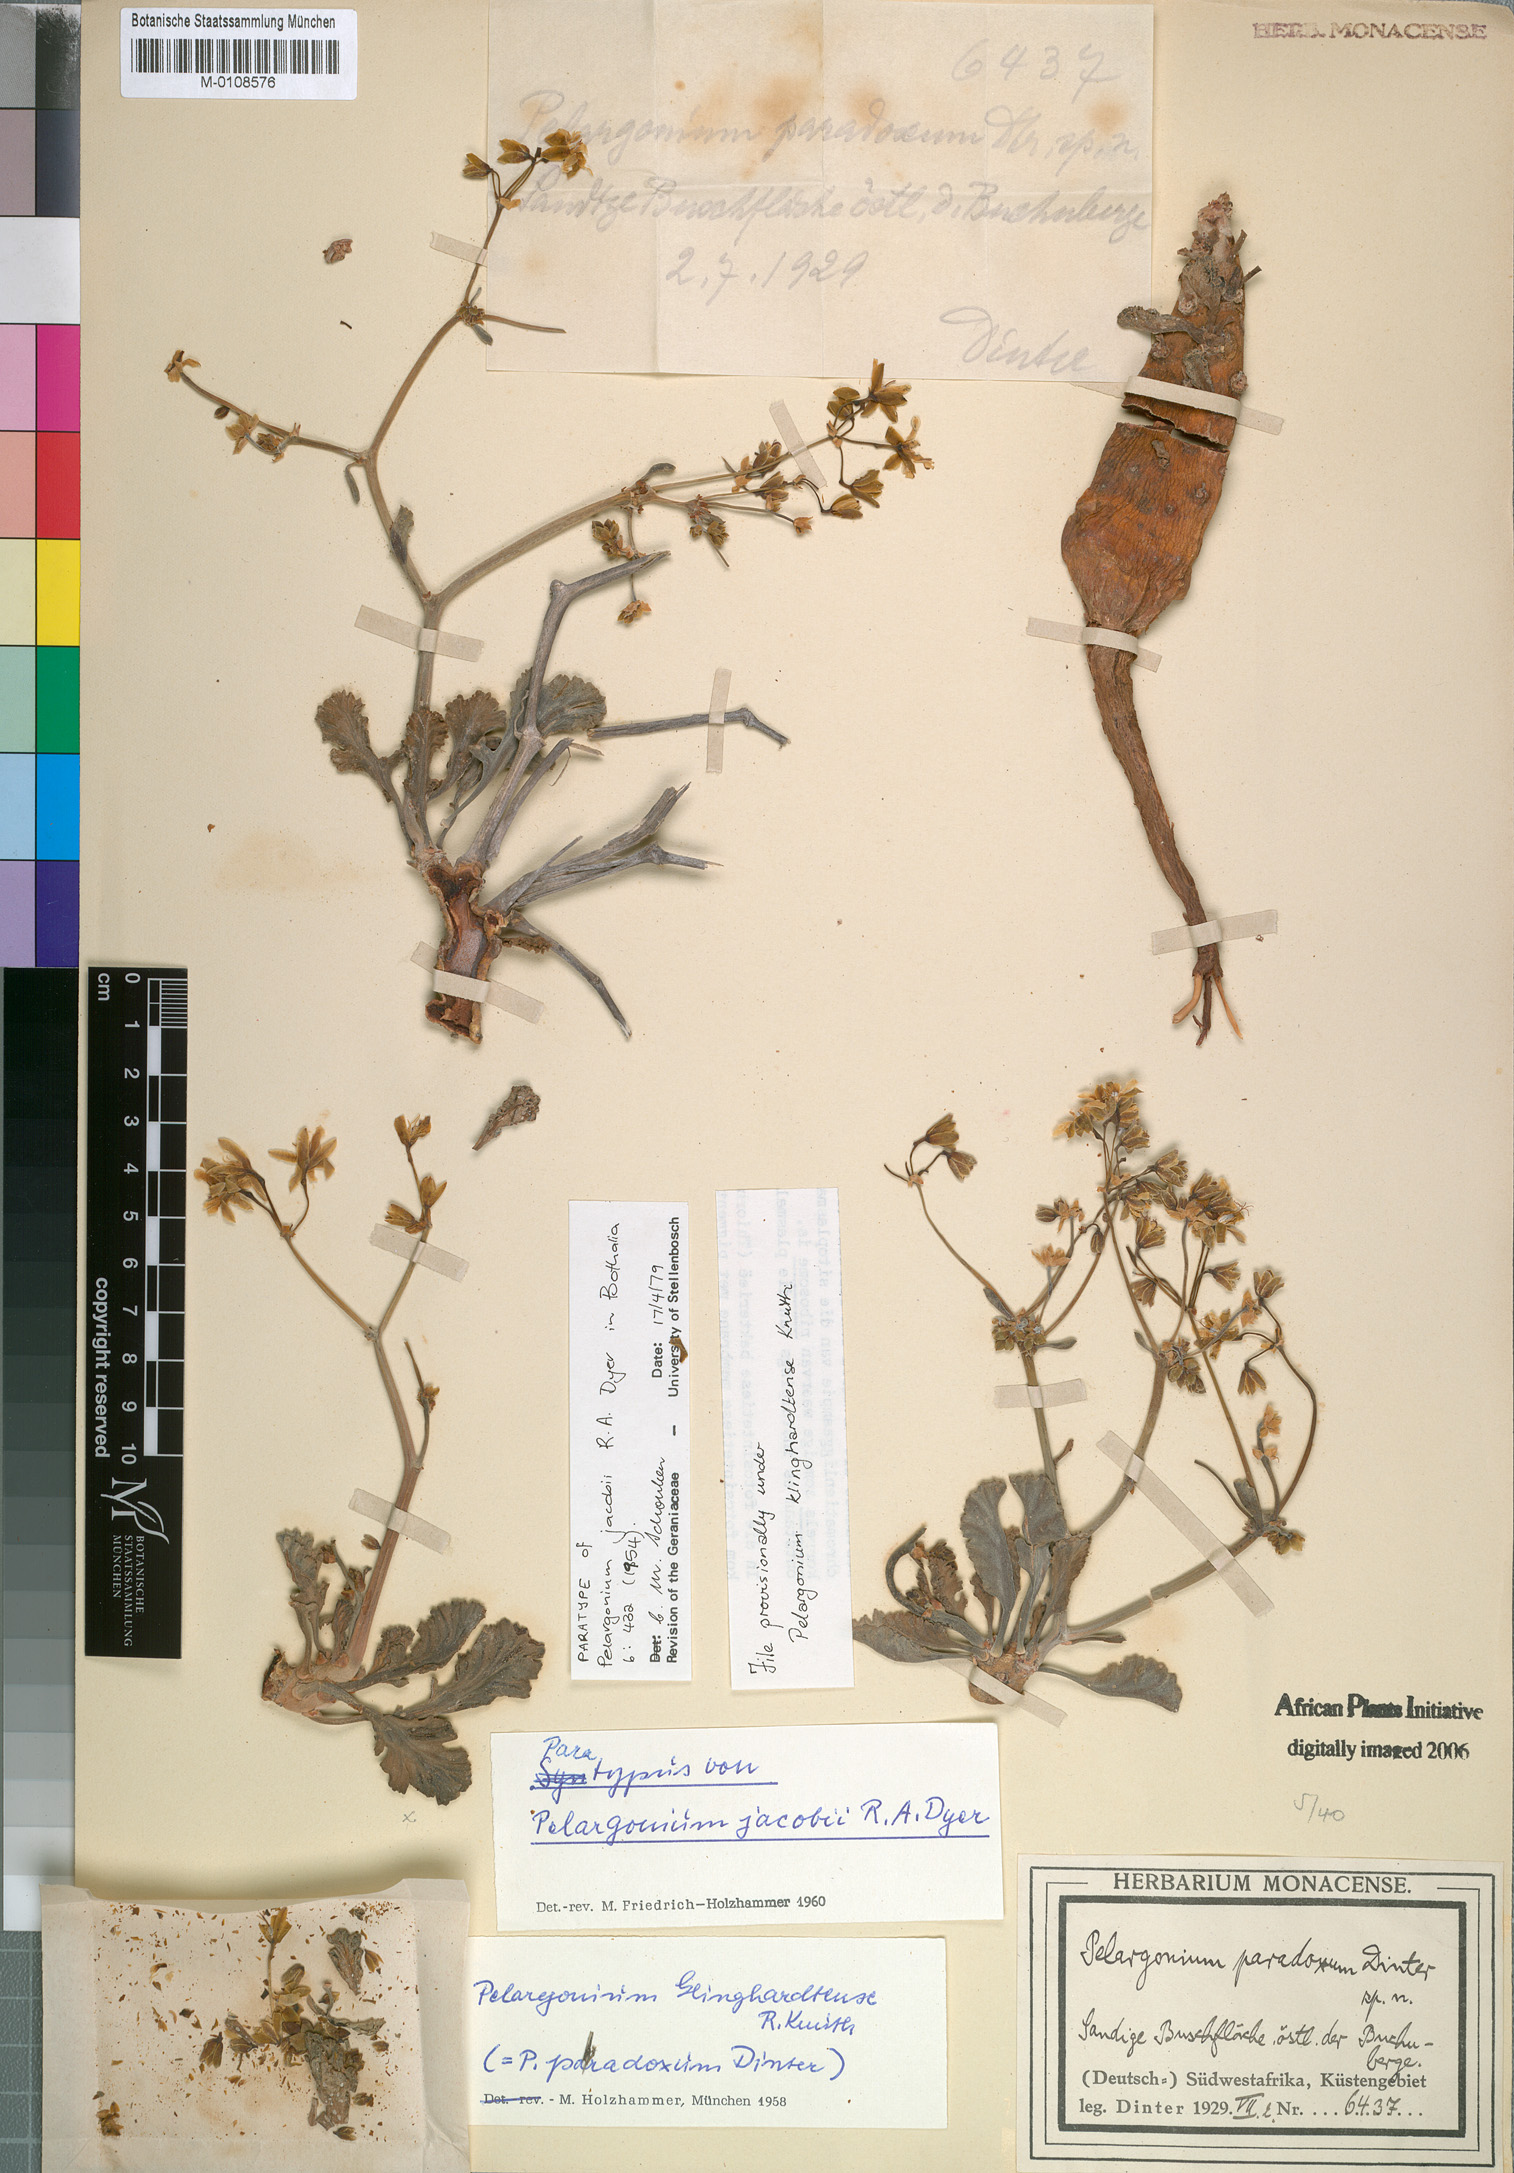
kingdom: Plantae
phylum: Tracheophyta
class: Magnoliopsida
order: Geraniales
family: Geraniaceae
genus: Pelargonium
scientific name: Pelargonium klinghardtense
